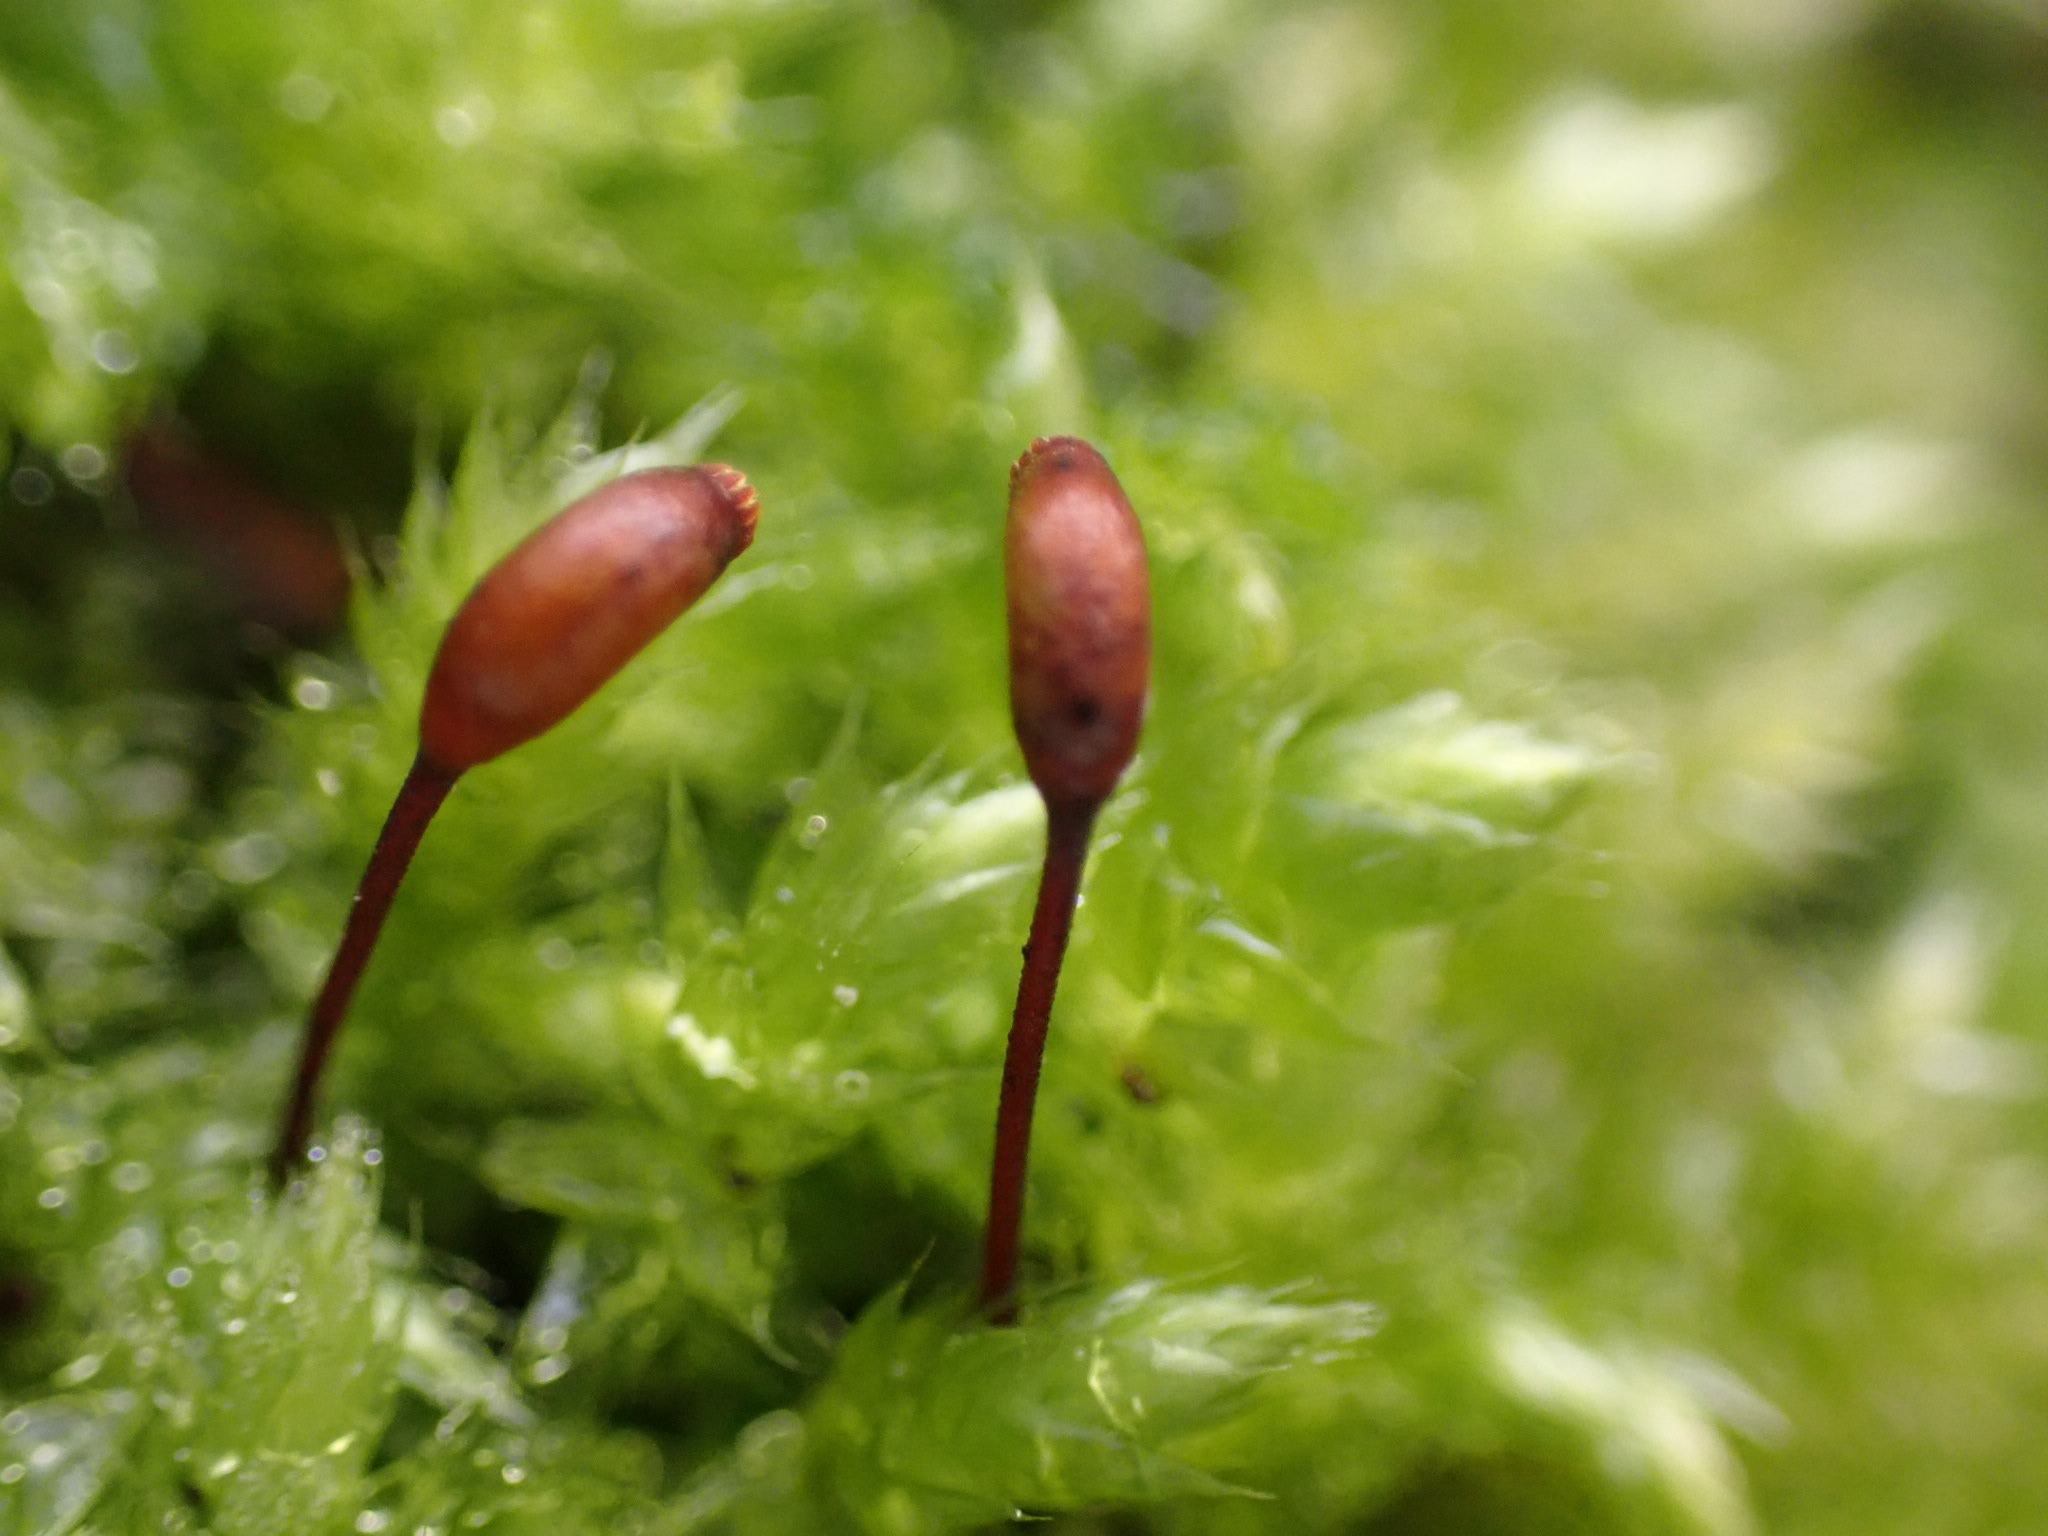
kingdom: Plantae
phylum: Bryophyta
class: Bryopsida
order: Hypnales
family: Brachytheciaceae
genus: Brachythecium
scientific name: Brachythecium rutabulum
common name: Almindelig kortkapsel
